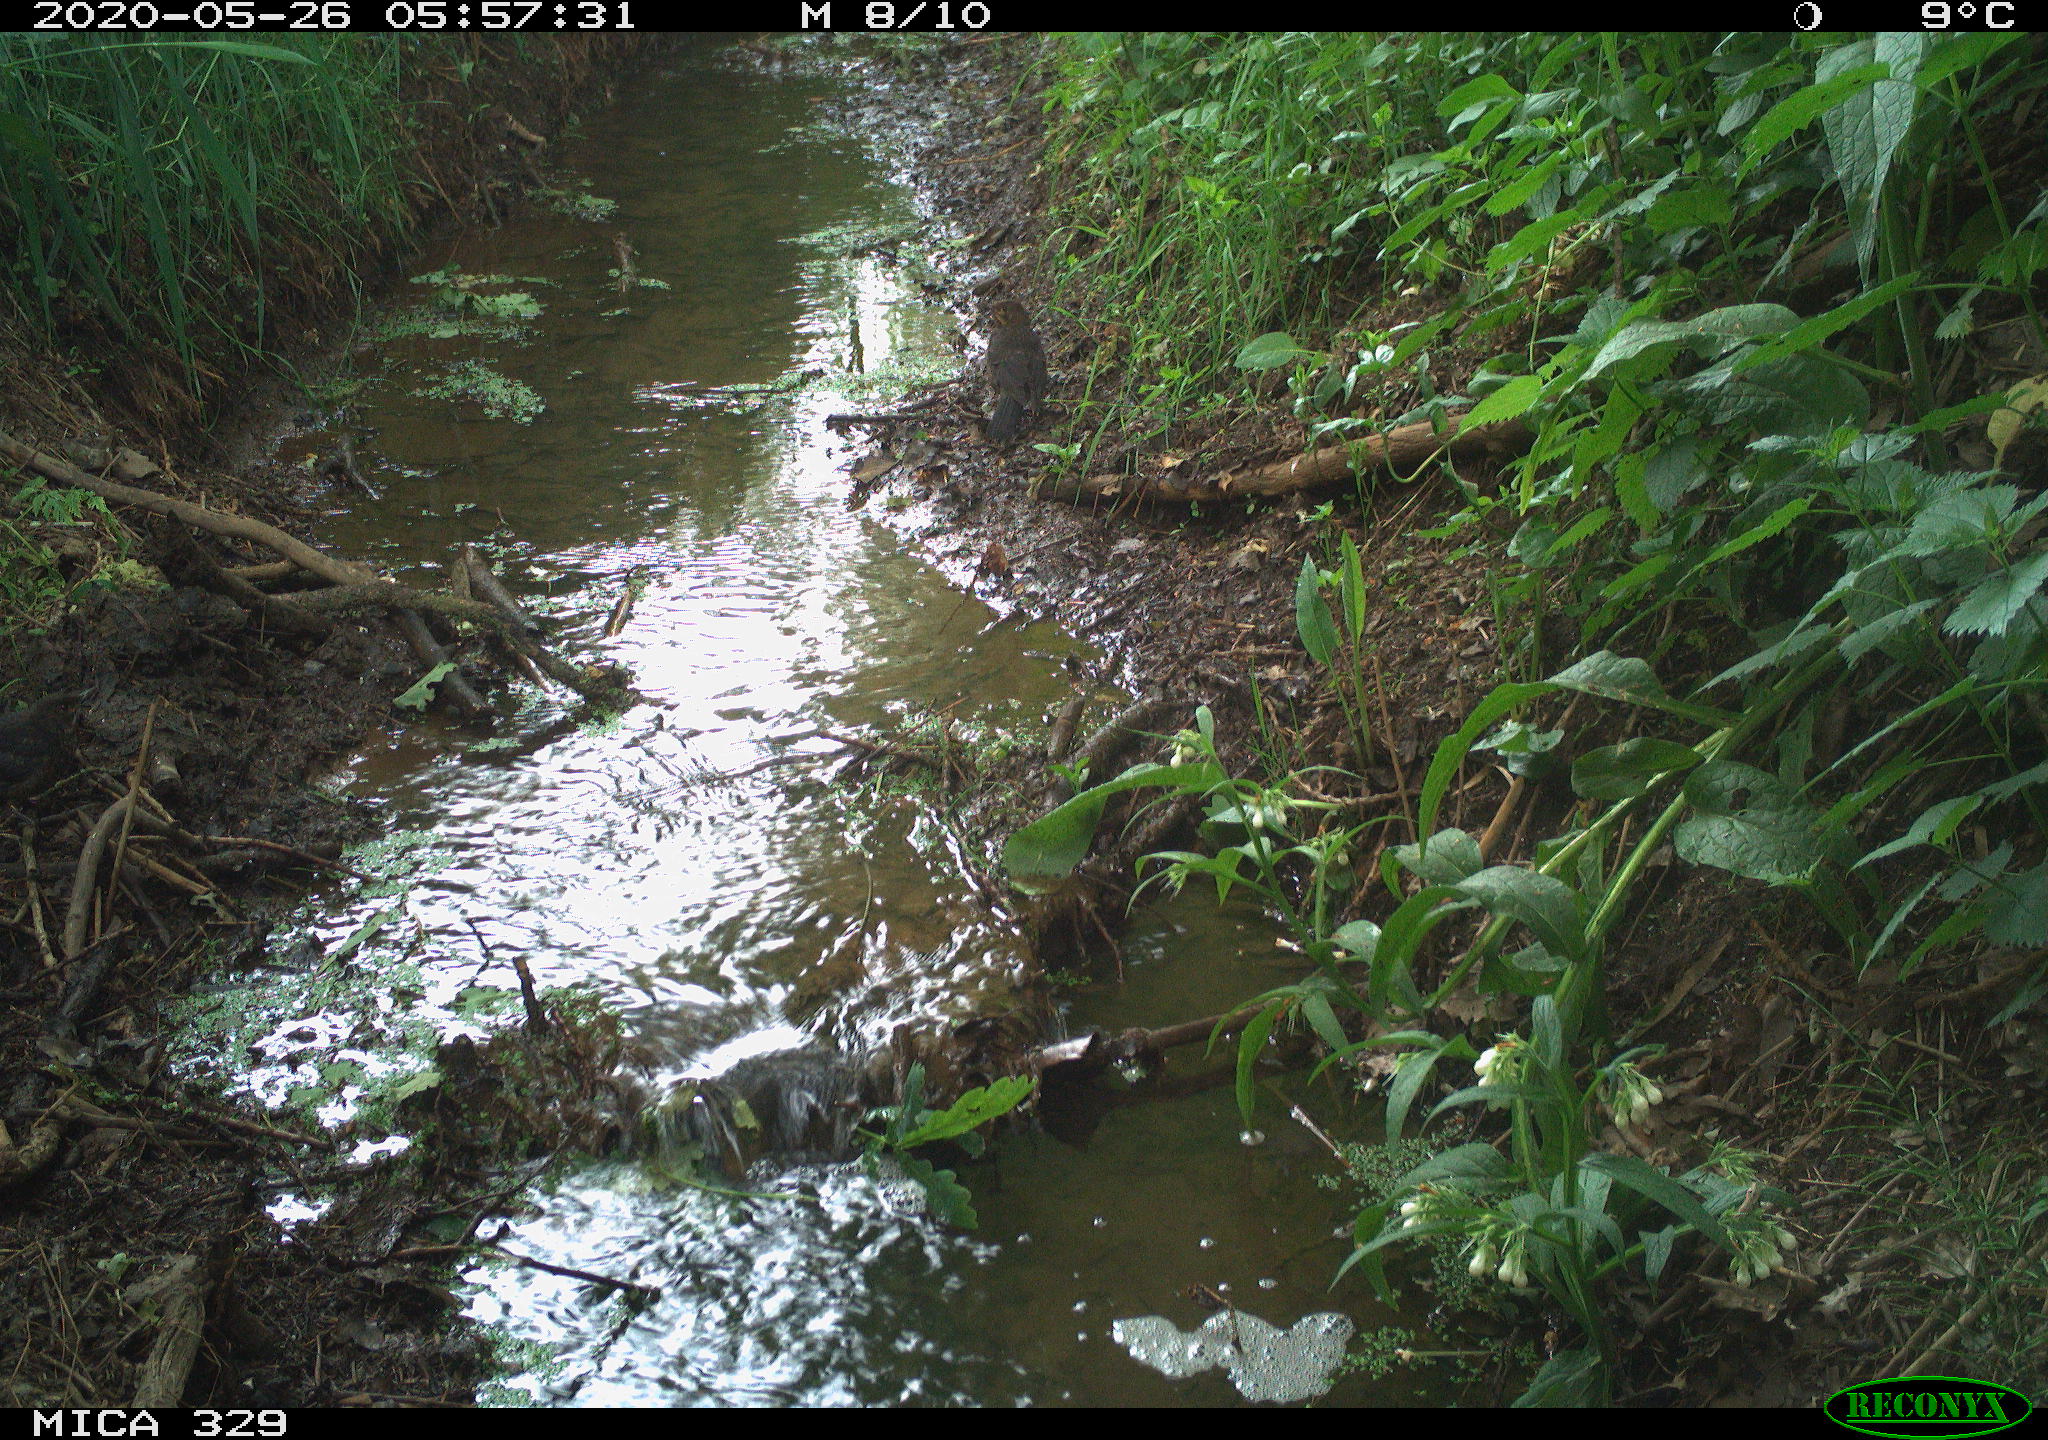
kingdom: Animalia
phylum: Chordata
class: Aves
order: Passeriformes
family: Turdidae
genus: Turdus
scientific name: Turdus merula
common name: Common blackbird
